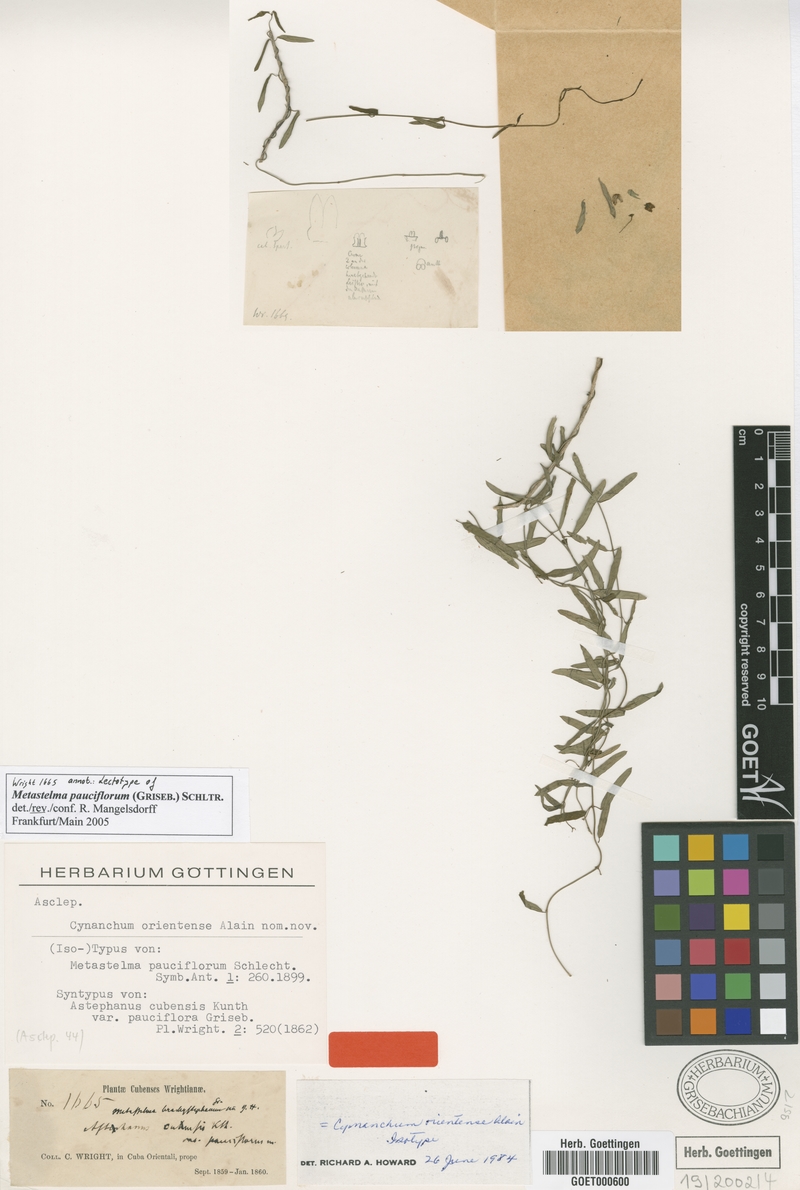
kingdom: Plantae
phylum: Tracheophyta
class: Magnoliopsida
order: Gentianales
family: Apocynaceae
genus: Metastelma
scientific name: Metastelma pauciflorum
